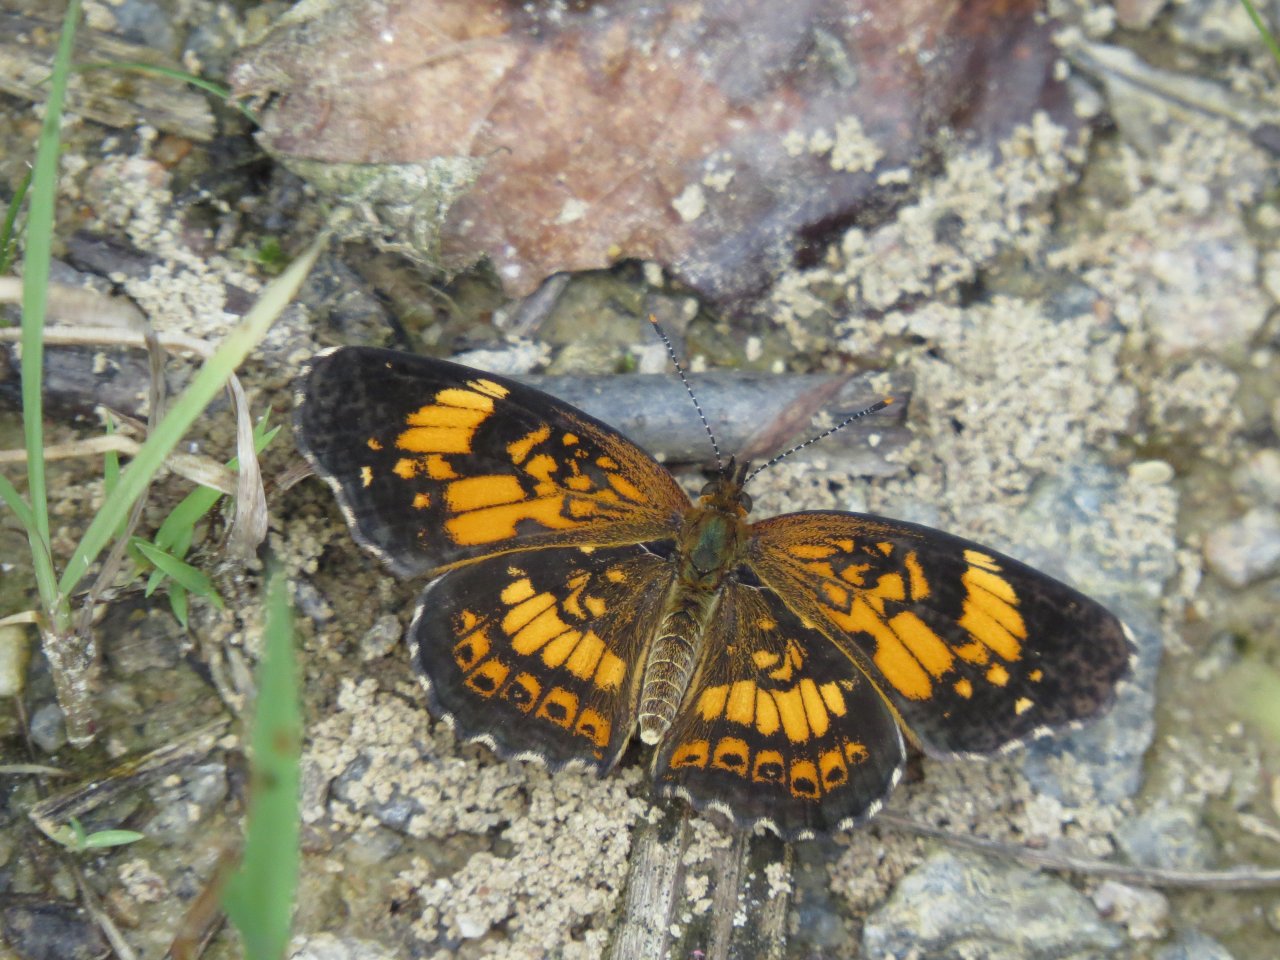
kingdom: Animalia
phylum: Arthropoda
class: Insecta
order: Lepidoptera
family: Nymphalidae
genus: Chlosyne
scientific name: Chlosyne nycteis
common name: Silvery Checkerspot
